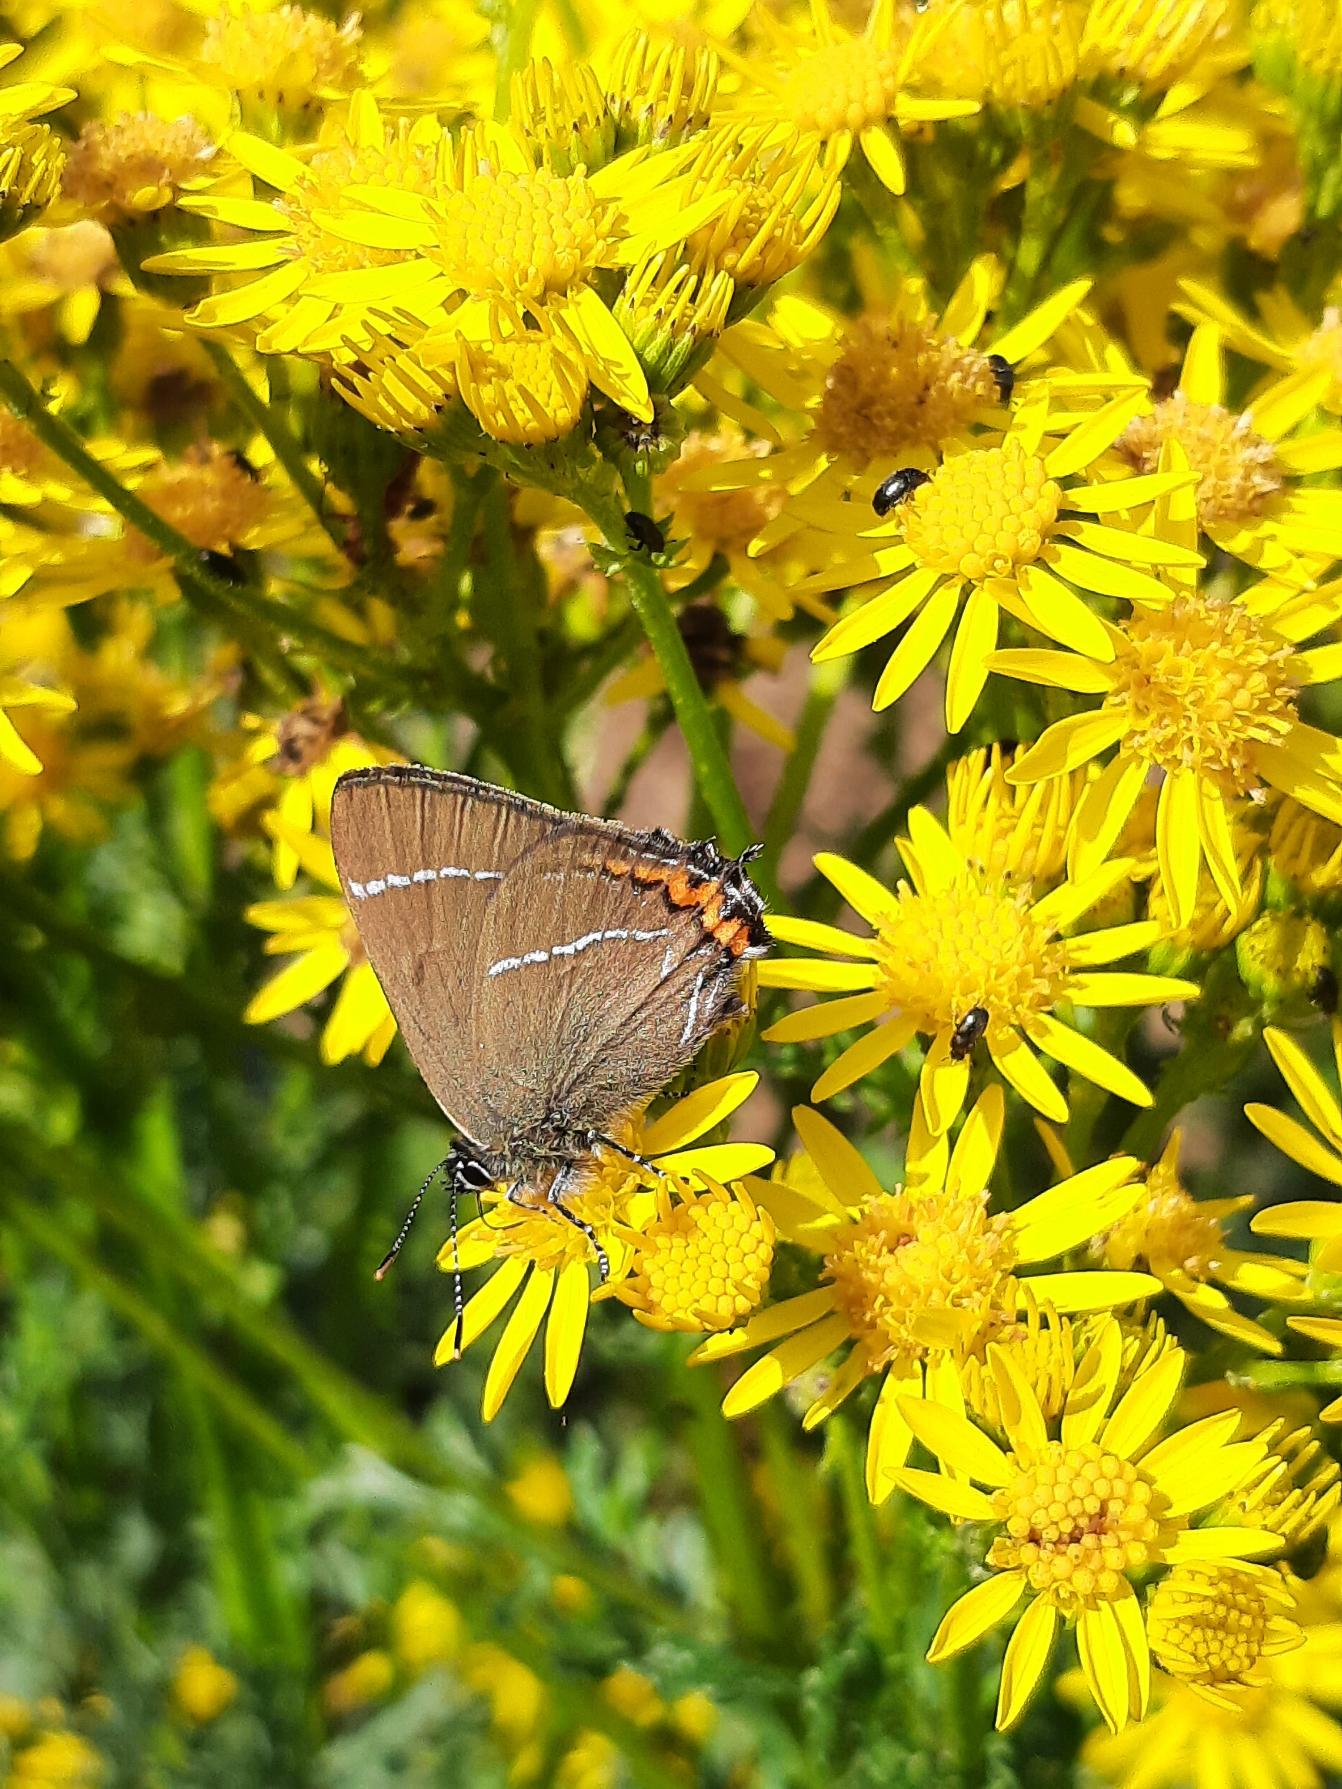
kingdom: Animalia
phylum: Arthropoda
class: Insecta
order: Lepidoptera
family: Lycaenidae
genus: Satyrium
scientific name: Satyrium w-album
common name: Det hvide W
